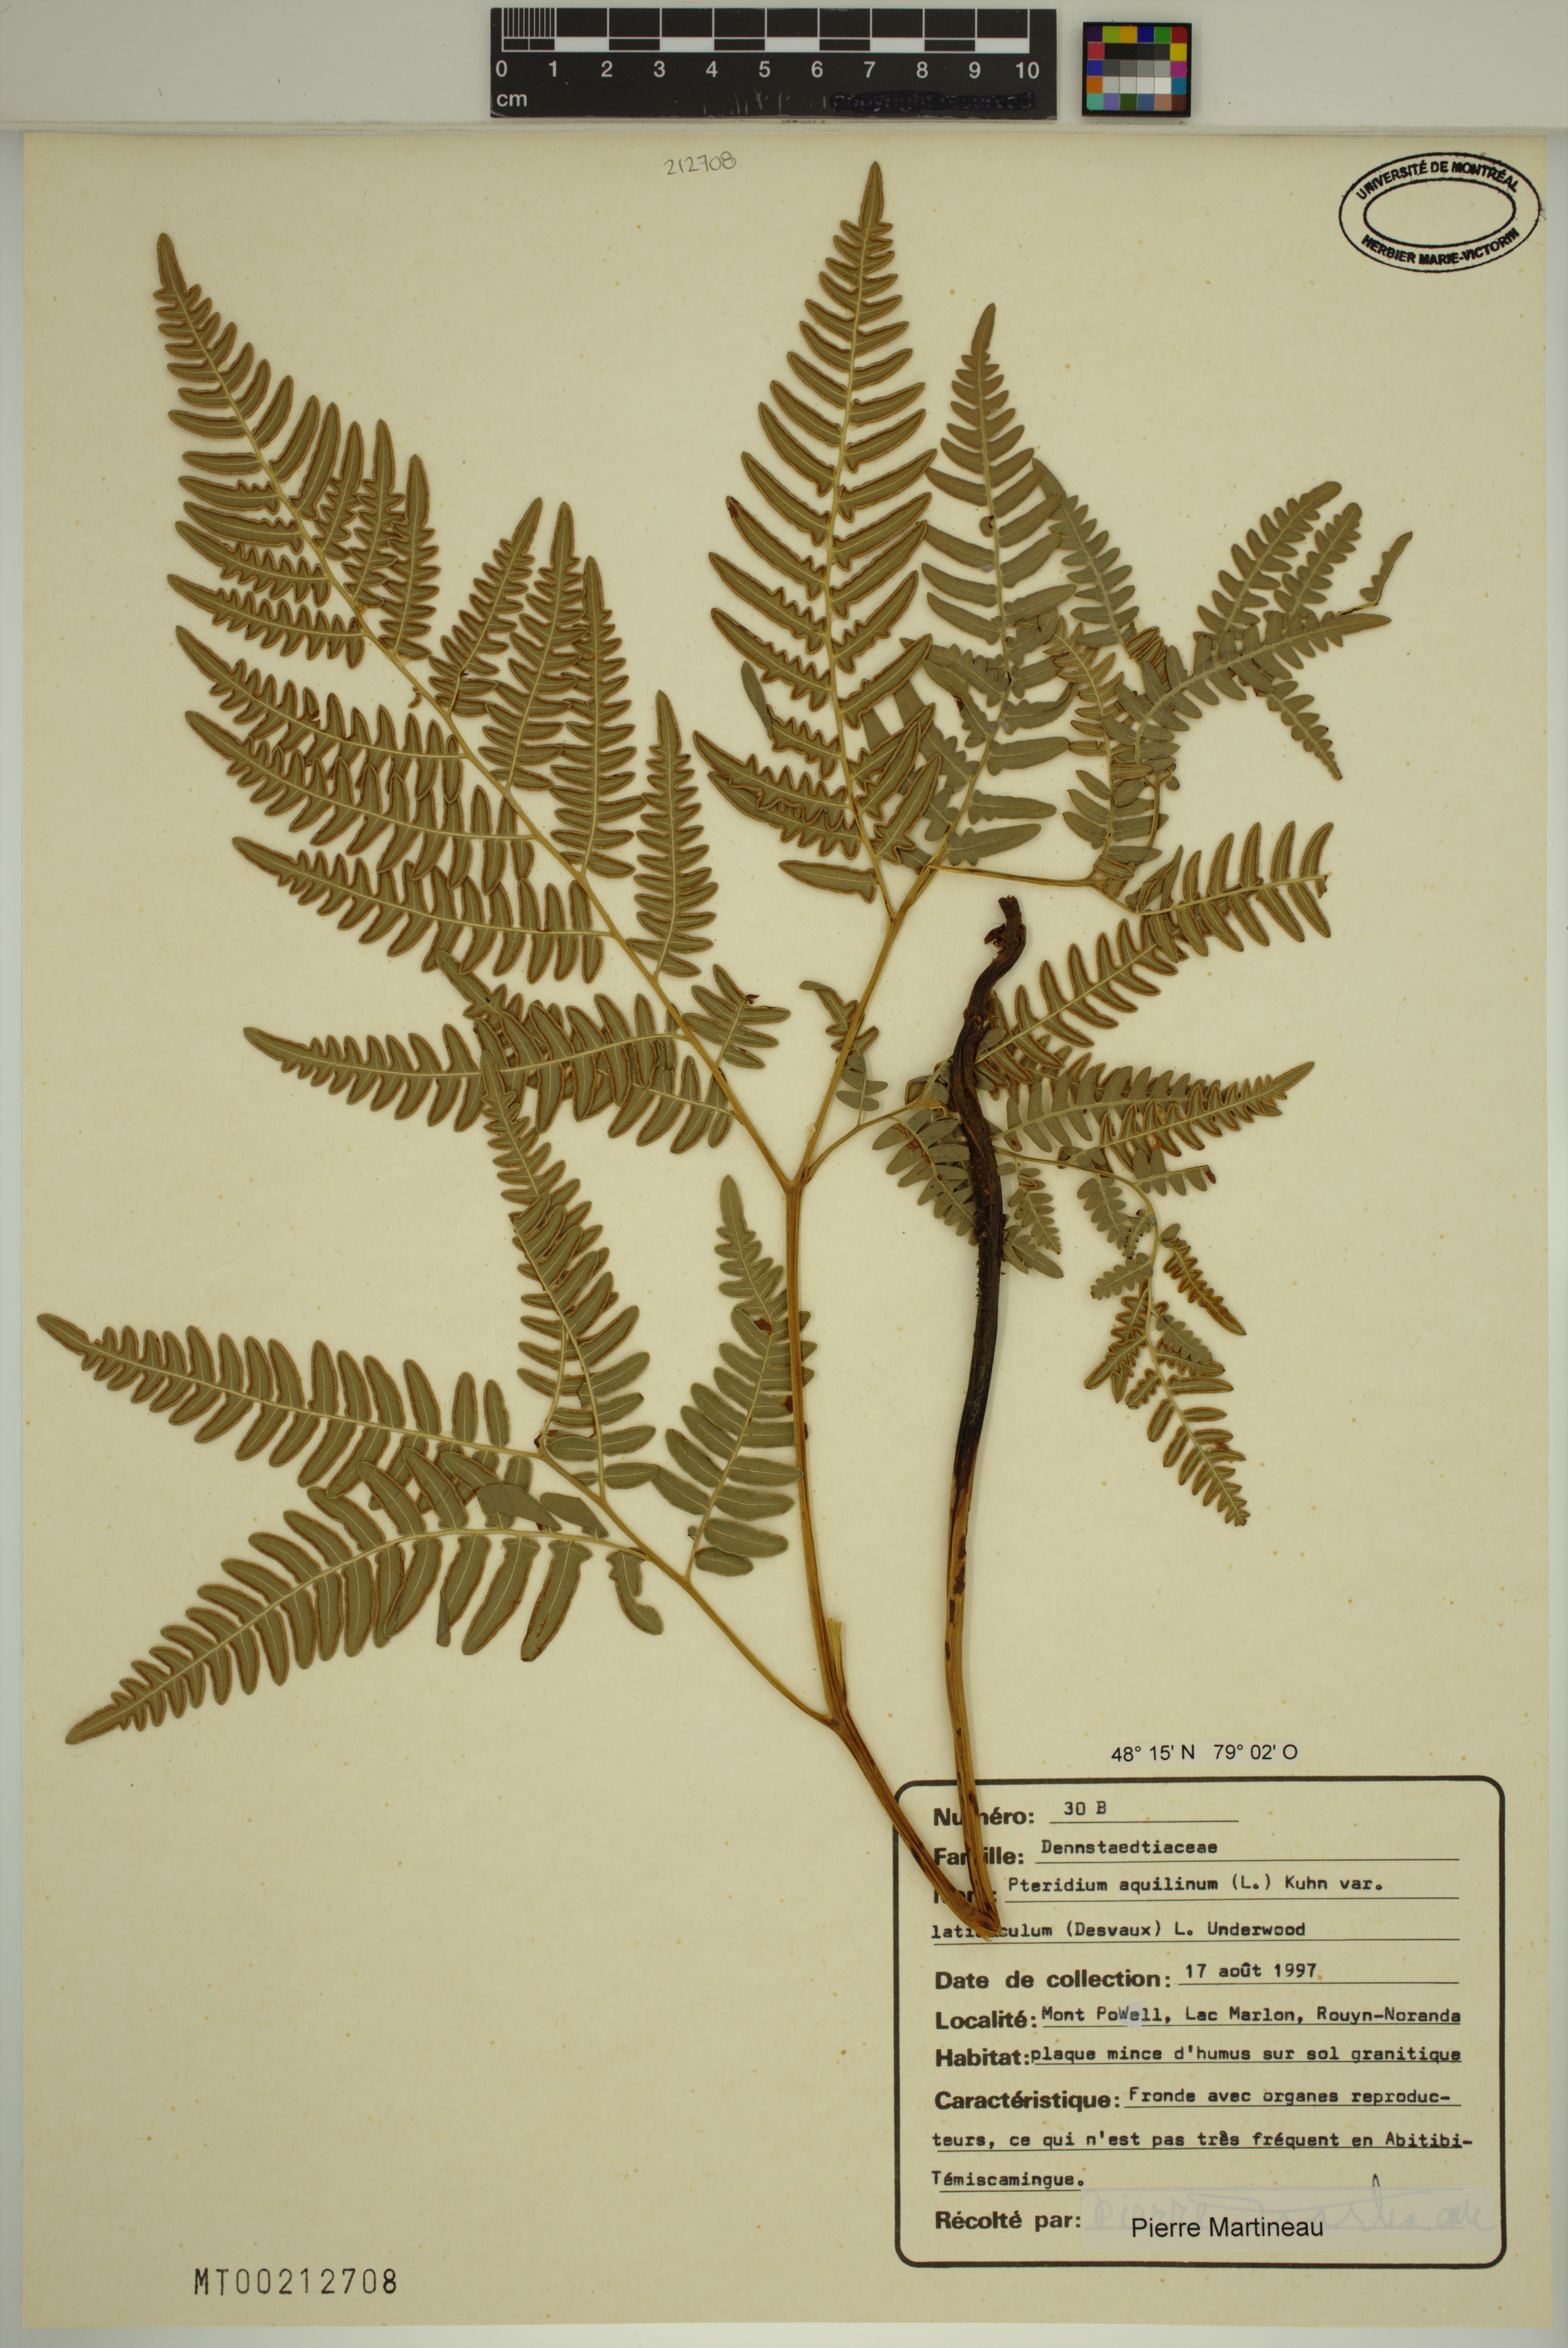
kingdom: Plantae
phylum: Tracheophyta
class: Polypodiopsida
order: Polypodiales
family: Dennstaedtiaceae
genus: Pteridium
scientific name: Pteridium aquilinum
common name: Bracken
